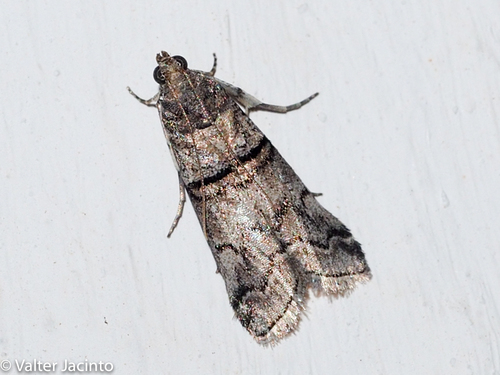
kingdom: Animalia
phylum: Arthropoda
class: Insecta
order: Lepidoptera
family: Pyralidae
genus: Acrobasis
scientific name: Acrobasis romanella
